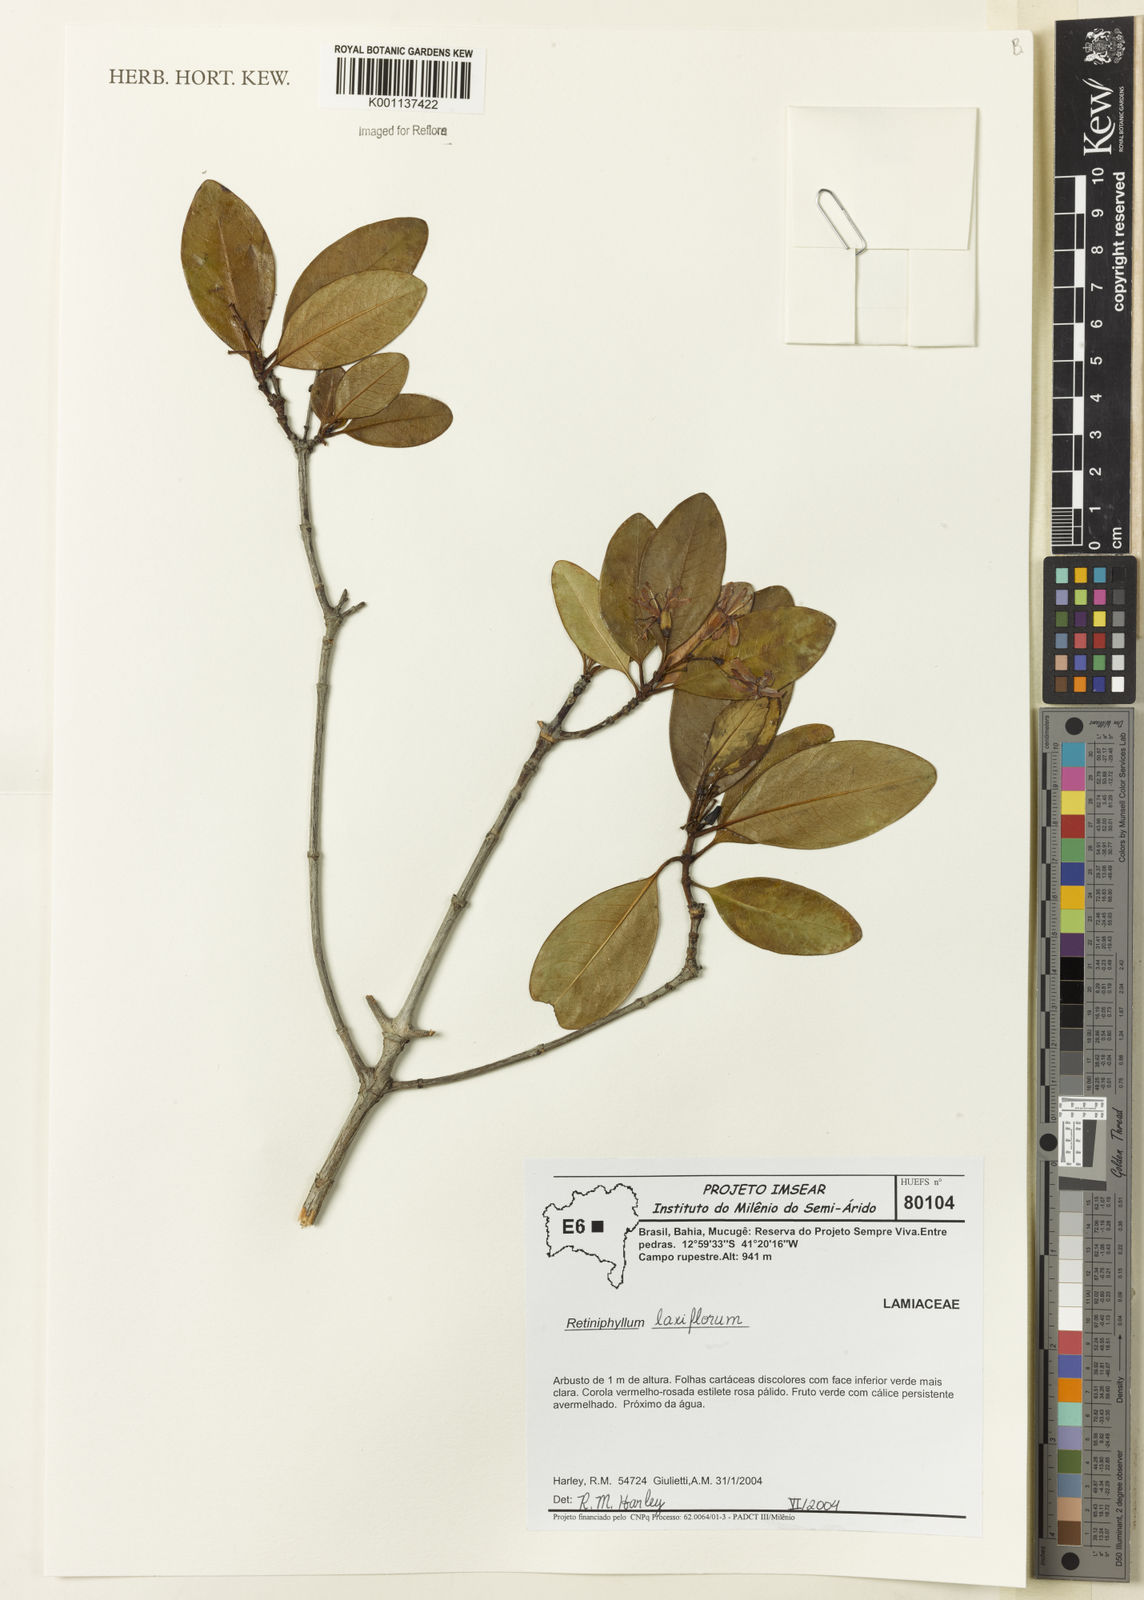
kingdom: Plantae
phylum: Tracheophyta
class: Magnoliopsida
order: Gentianales
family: Rubiaceae
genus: Retiniphyllum
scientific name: Retiniphyllum laxiflorum
